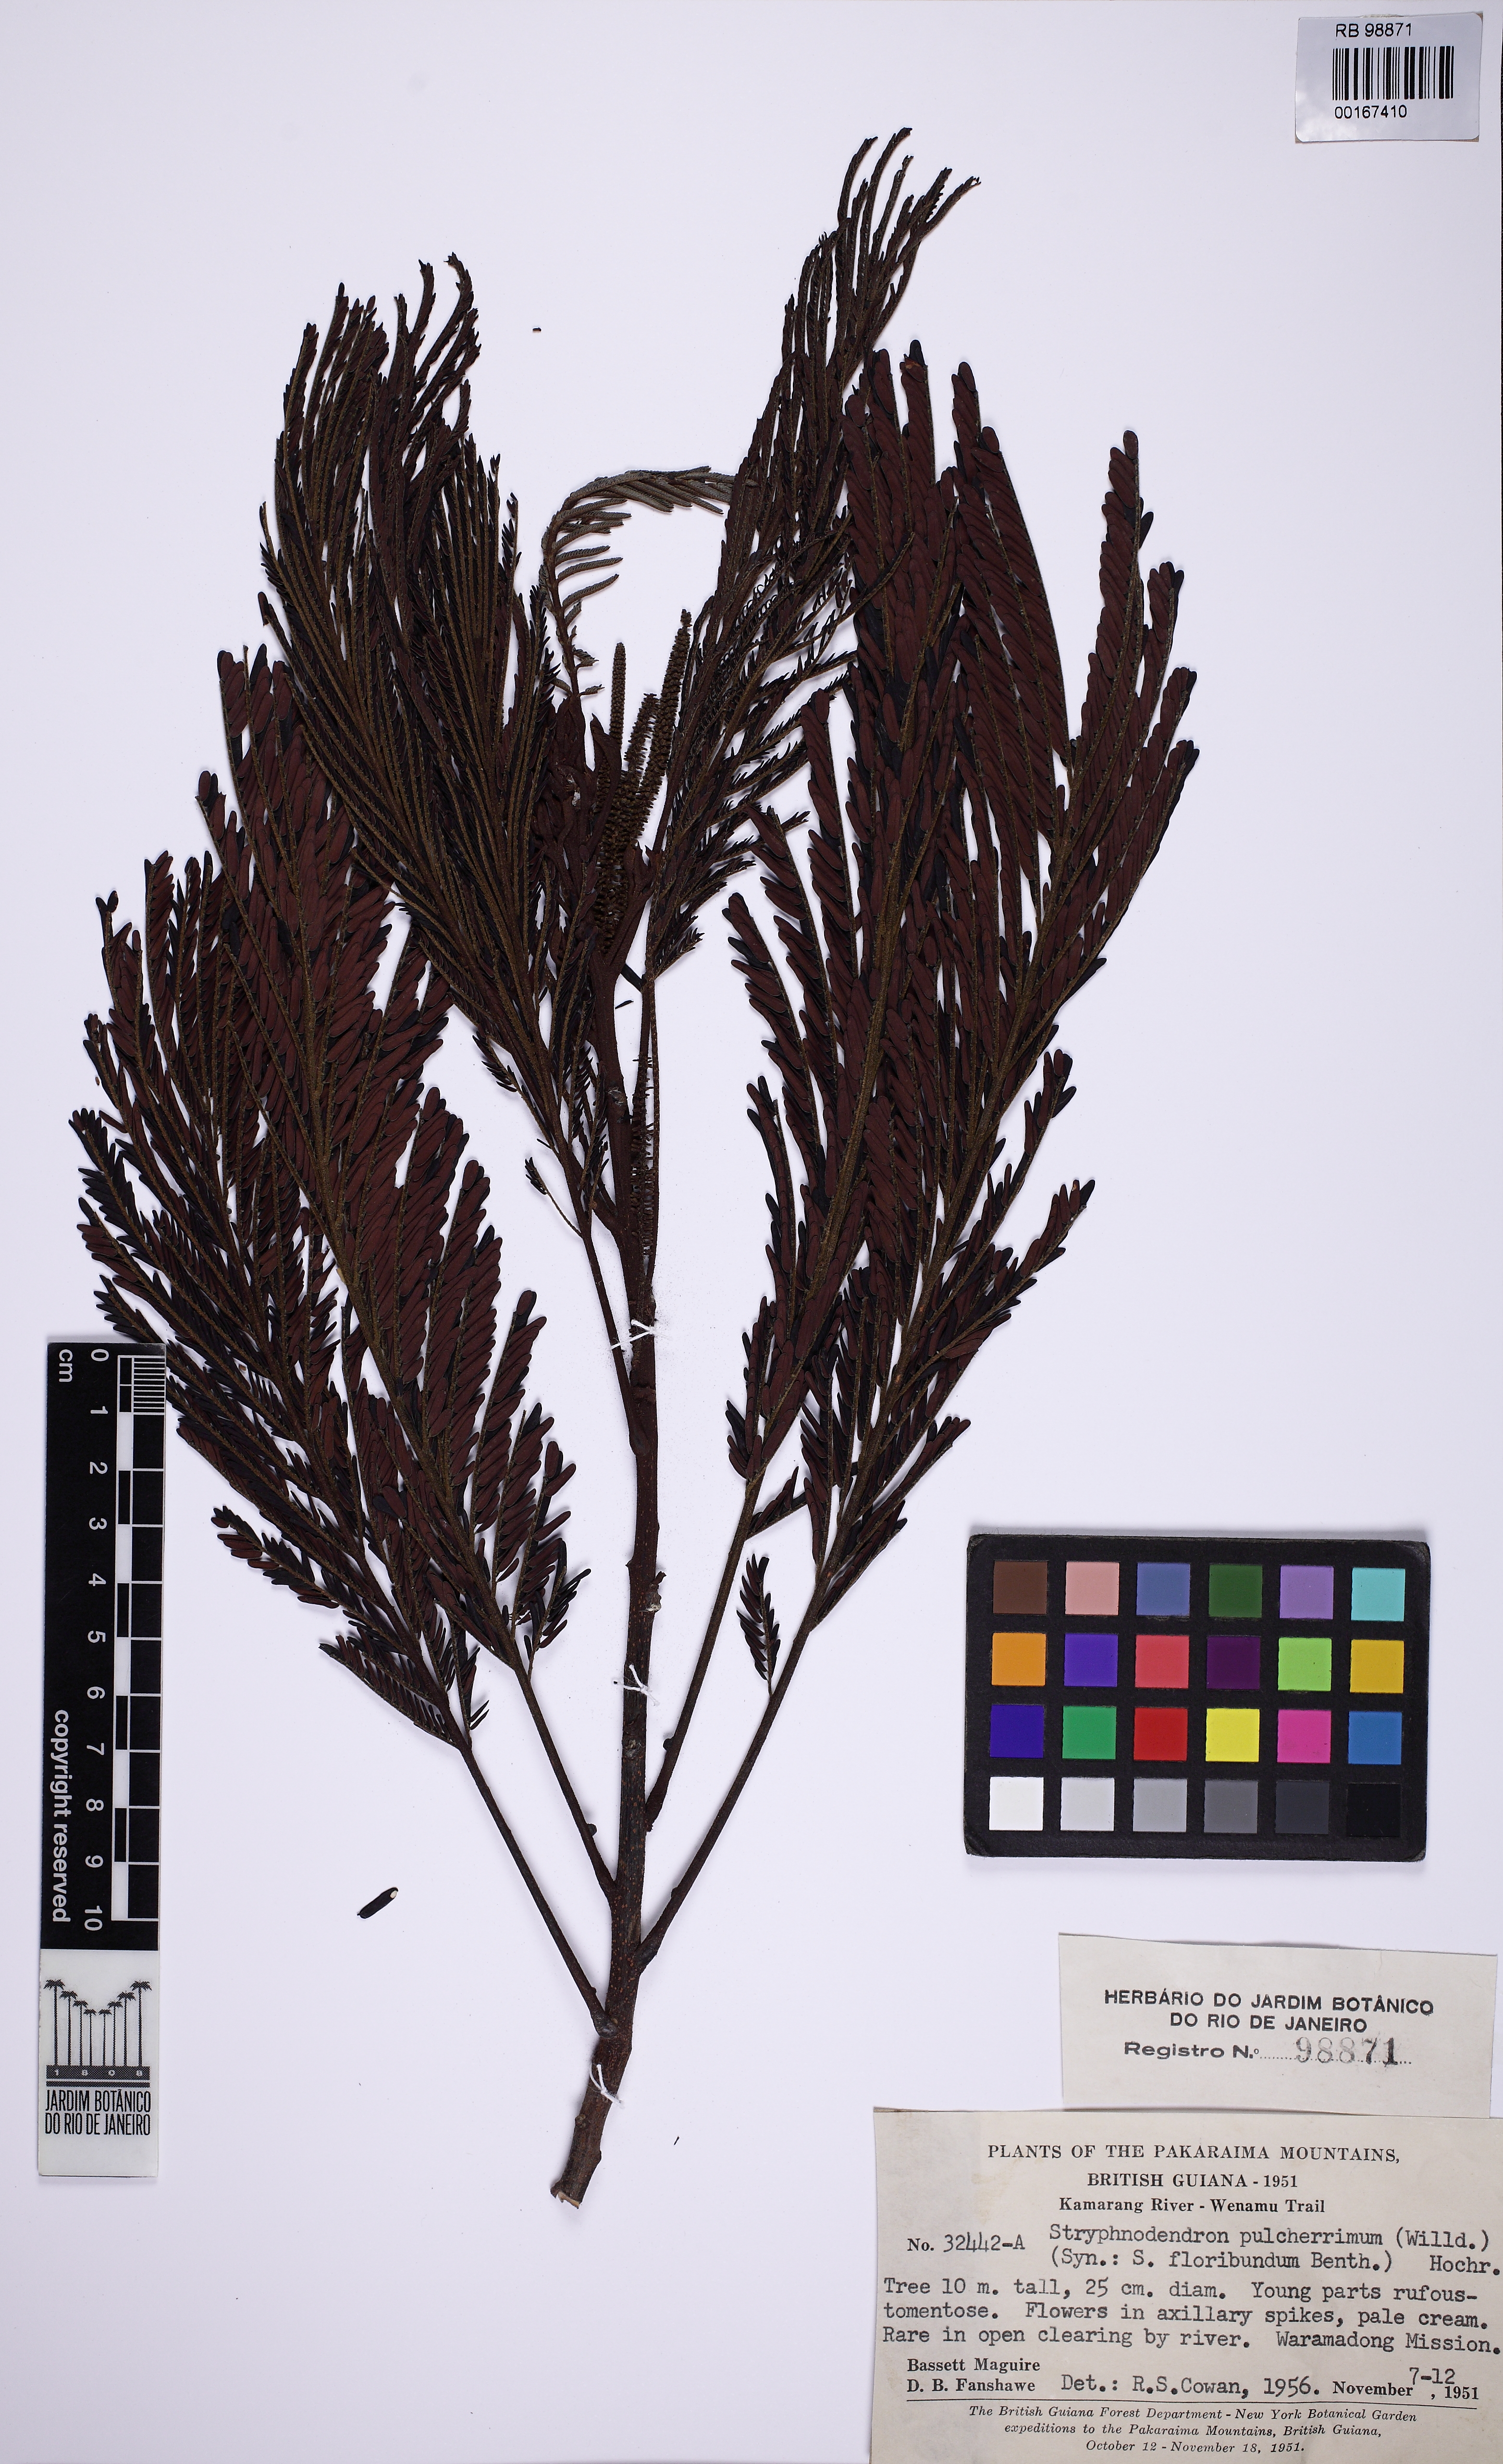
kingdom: Plantae
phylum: Tracheophyta
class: Magnoliopsida
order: Fabales
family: Fabaceae
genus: Stryphnodendron
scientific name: Stryphnodendron pulcherrimum
